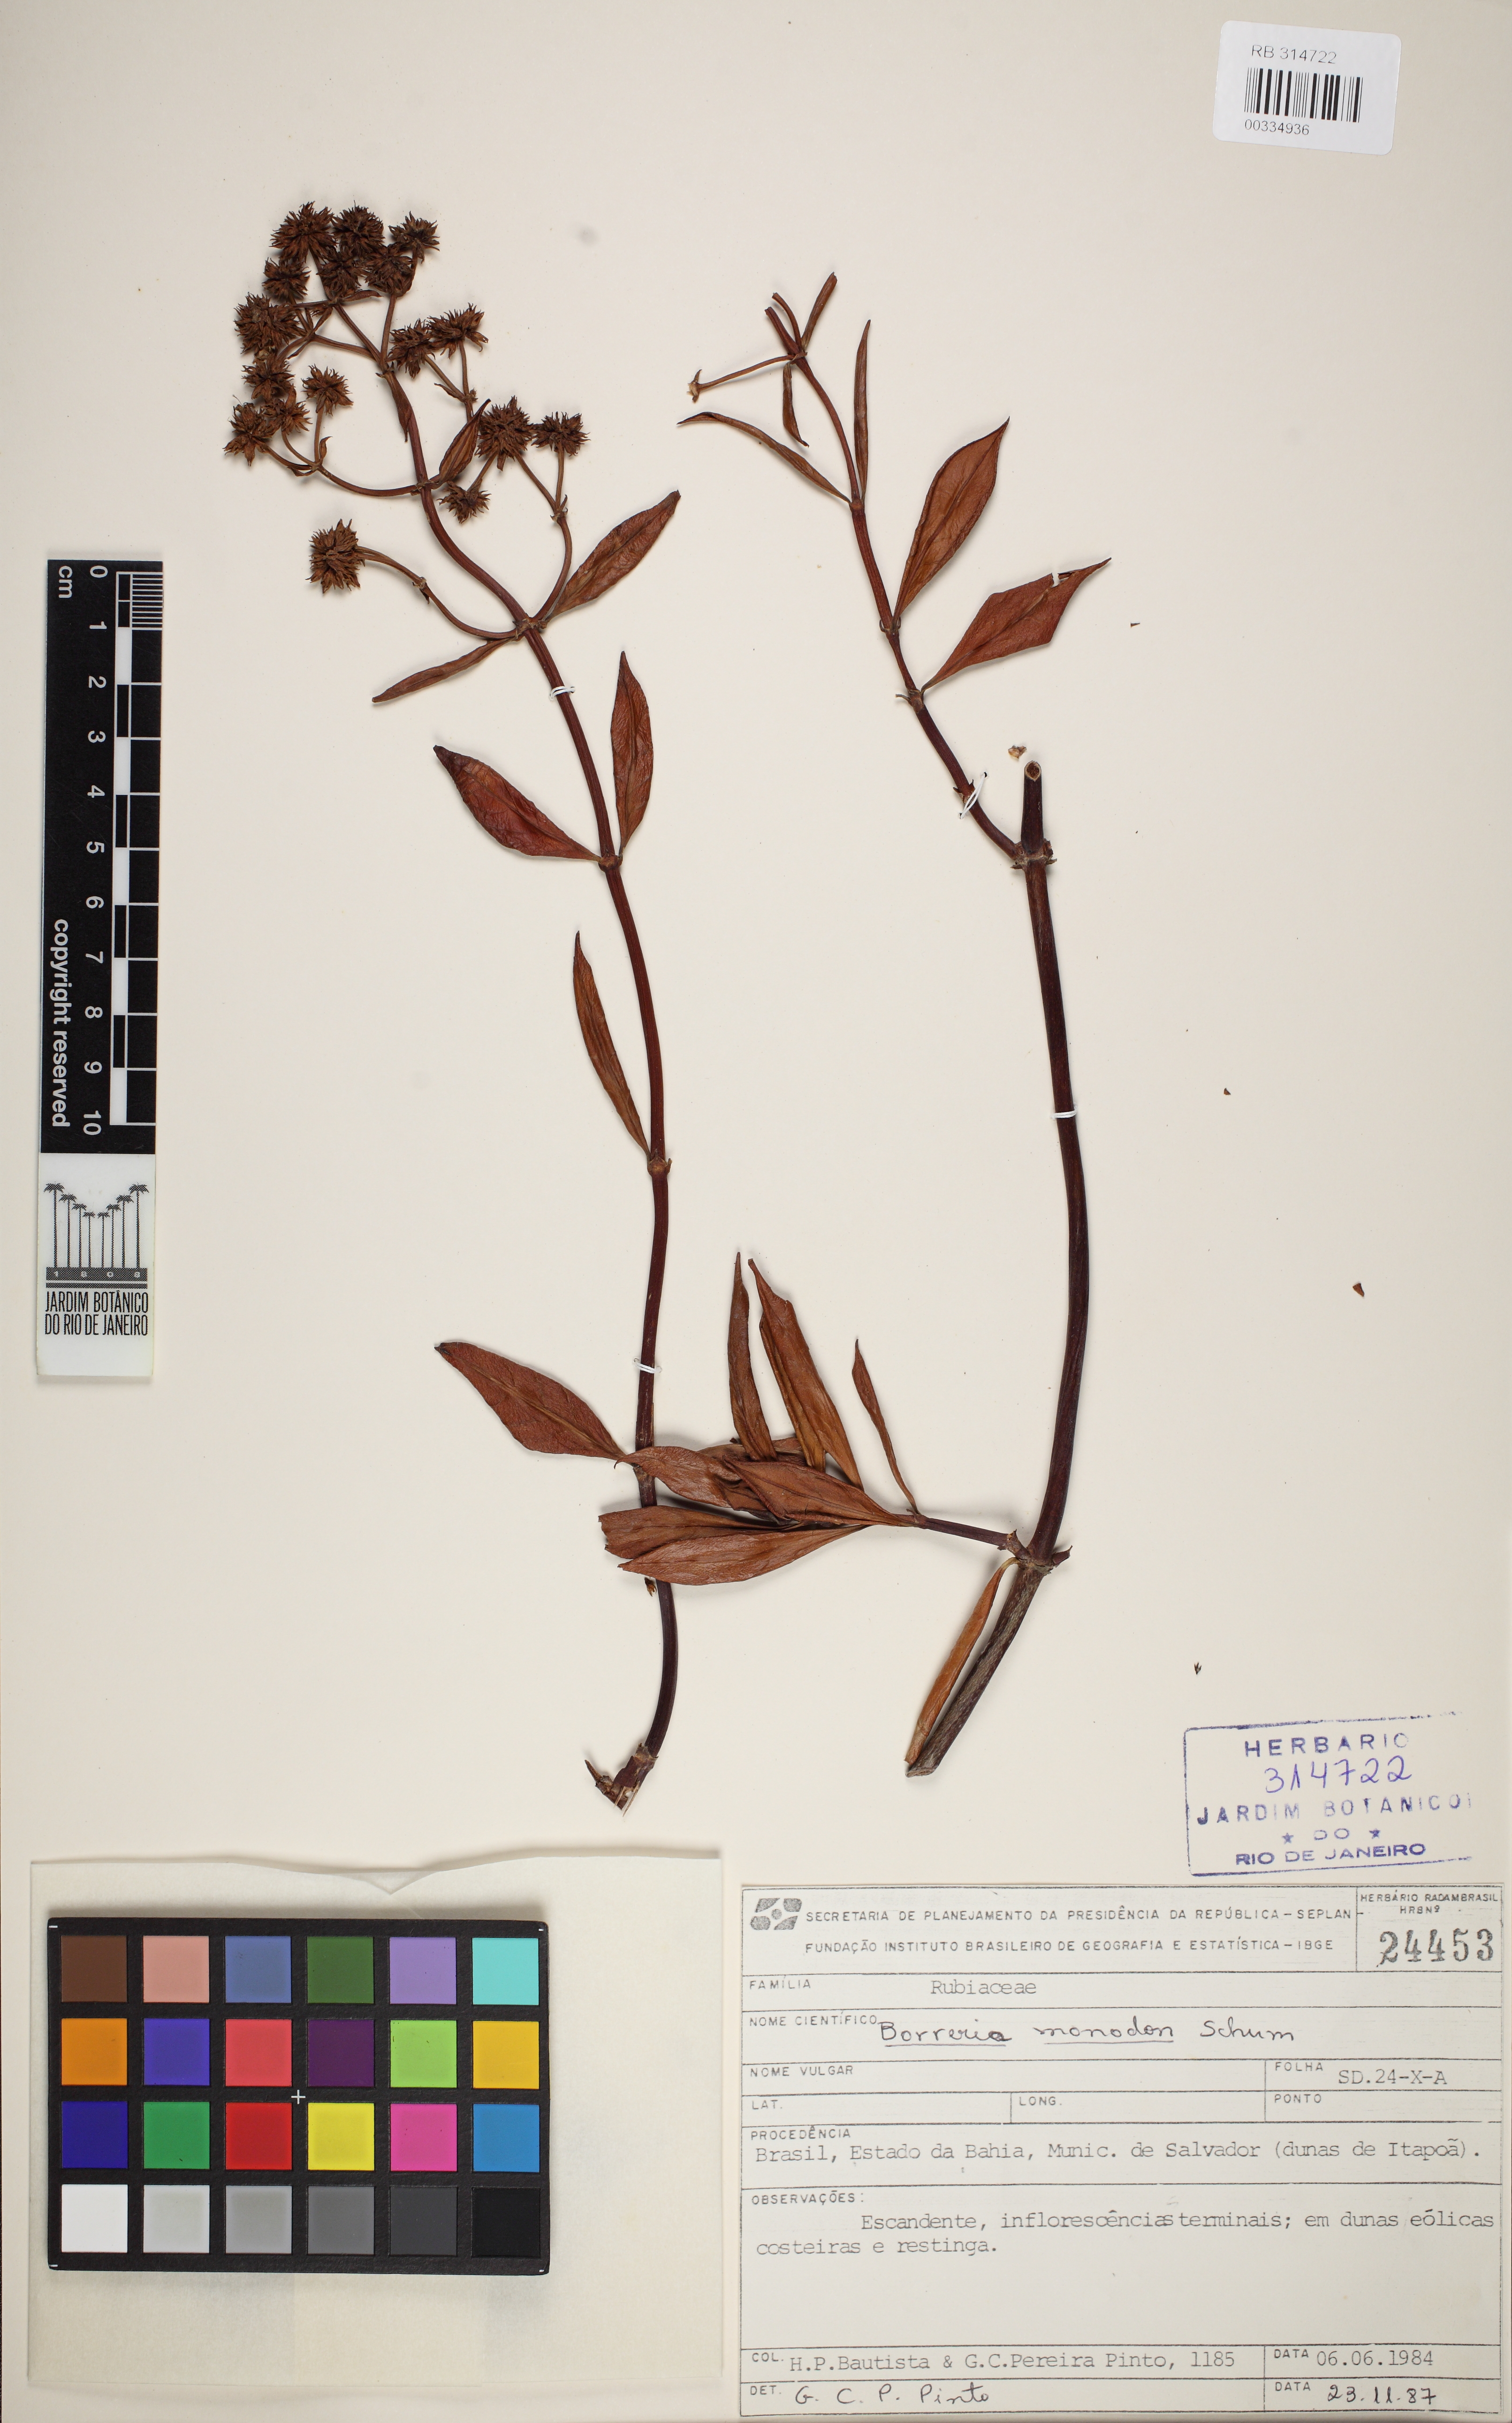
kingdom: Plantae
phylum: Tracheophyta
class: Magnoliopsida
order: Gentianales
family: Rubiaceae
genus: Denscantia
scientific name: Denscantia monodon
